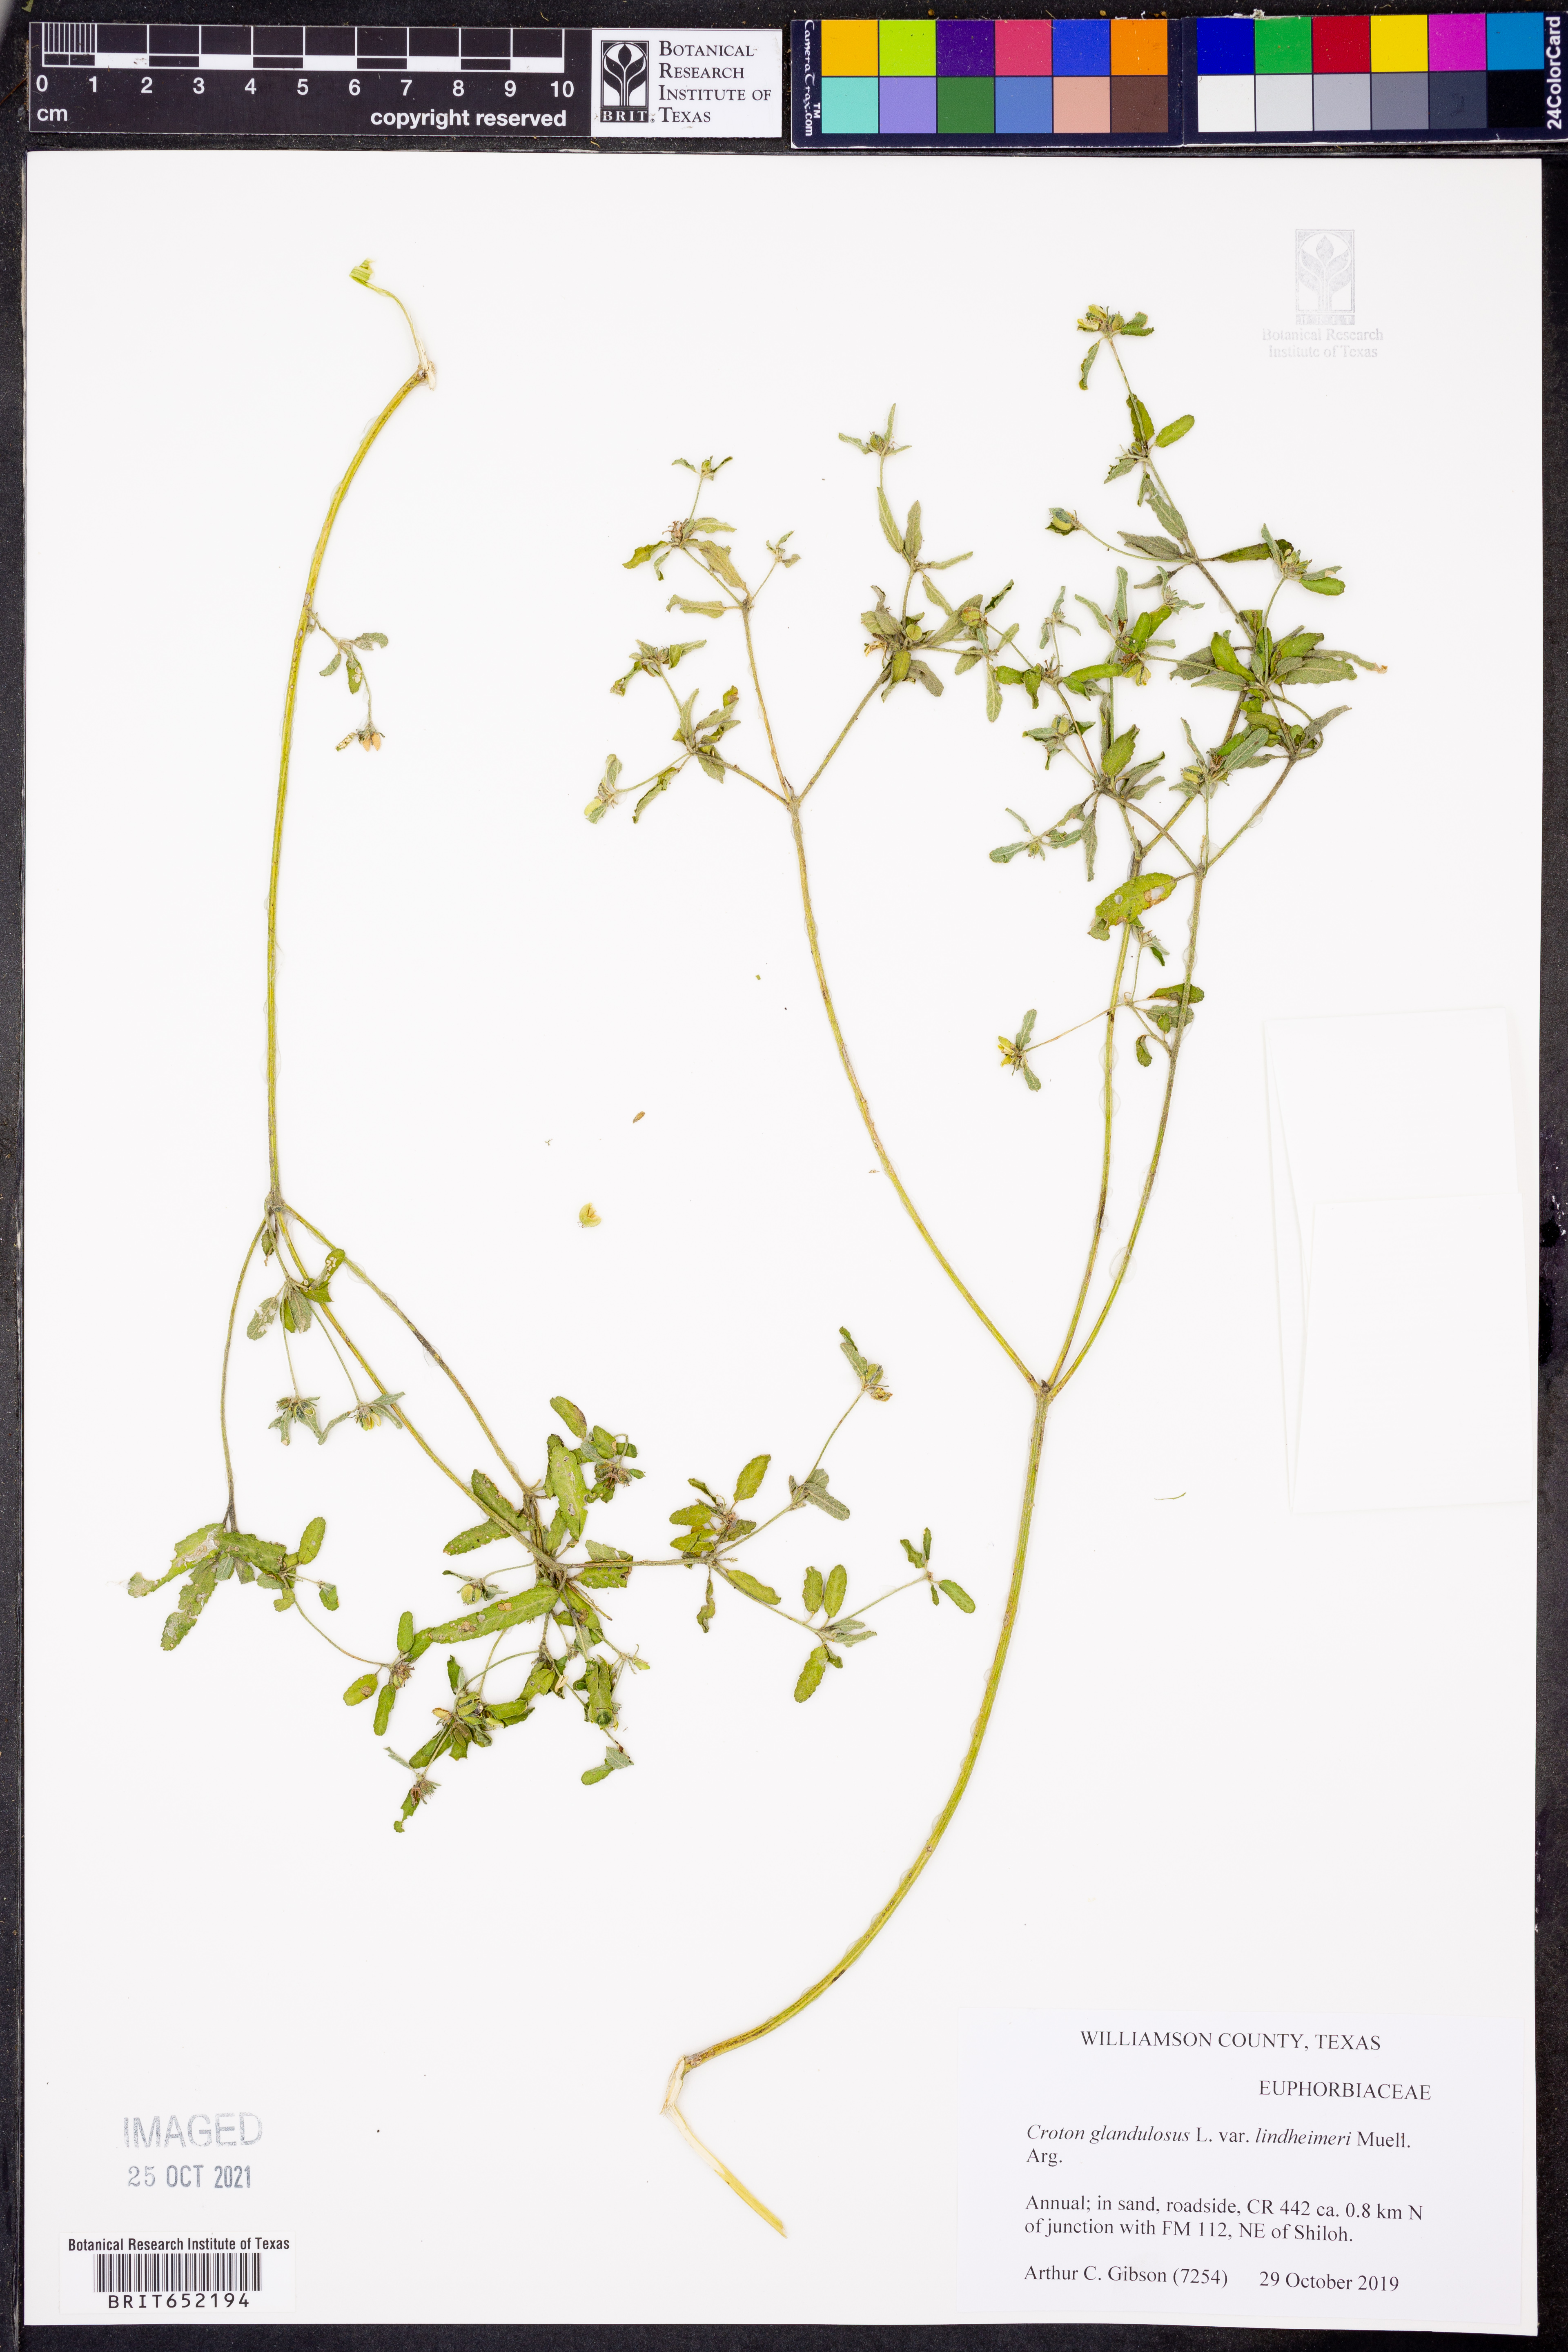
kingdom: Plantae
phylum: Tracheophyta
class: Magnoliopsida
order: Malpighiales
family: Euphorbiaceae
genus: Croton
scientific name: Croton glandulosus
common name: Tropic croton
